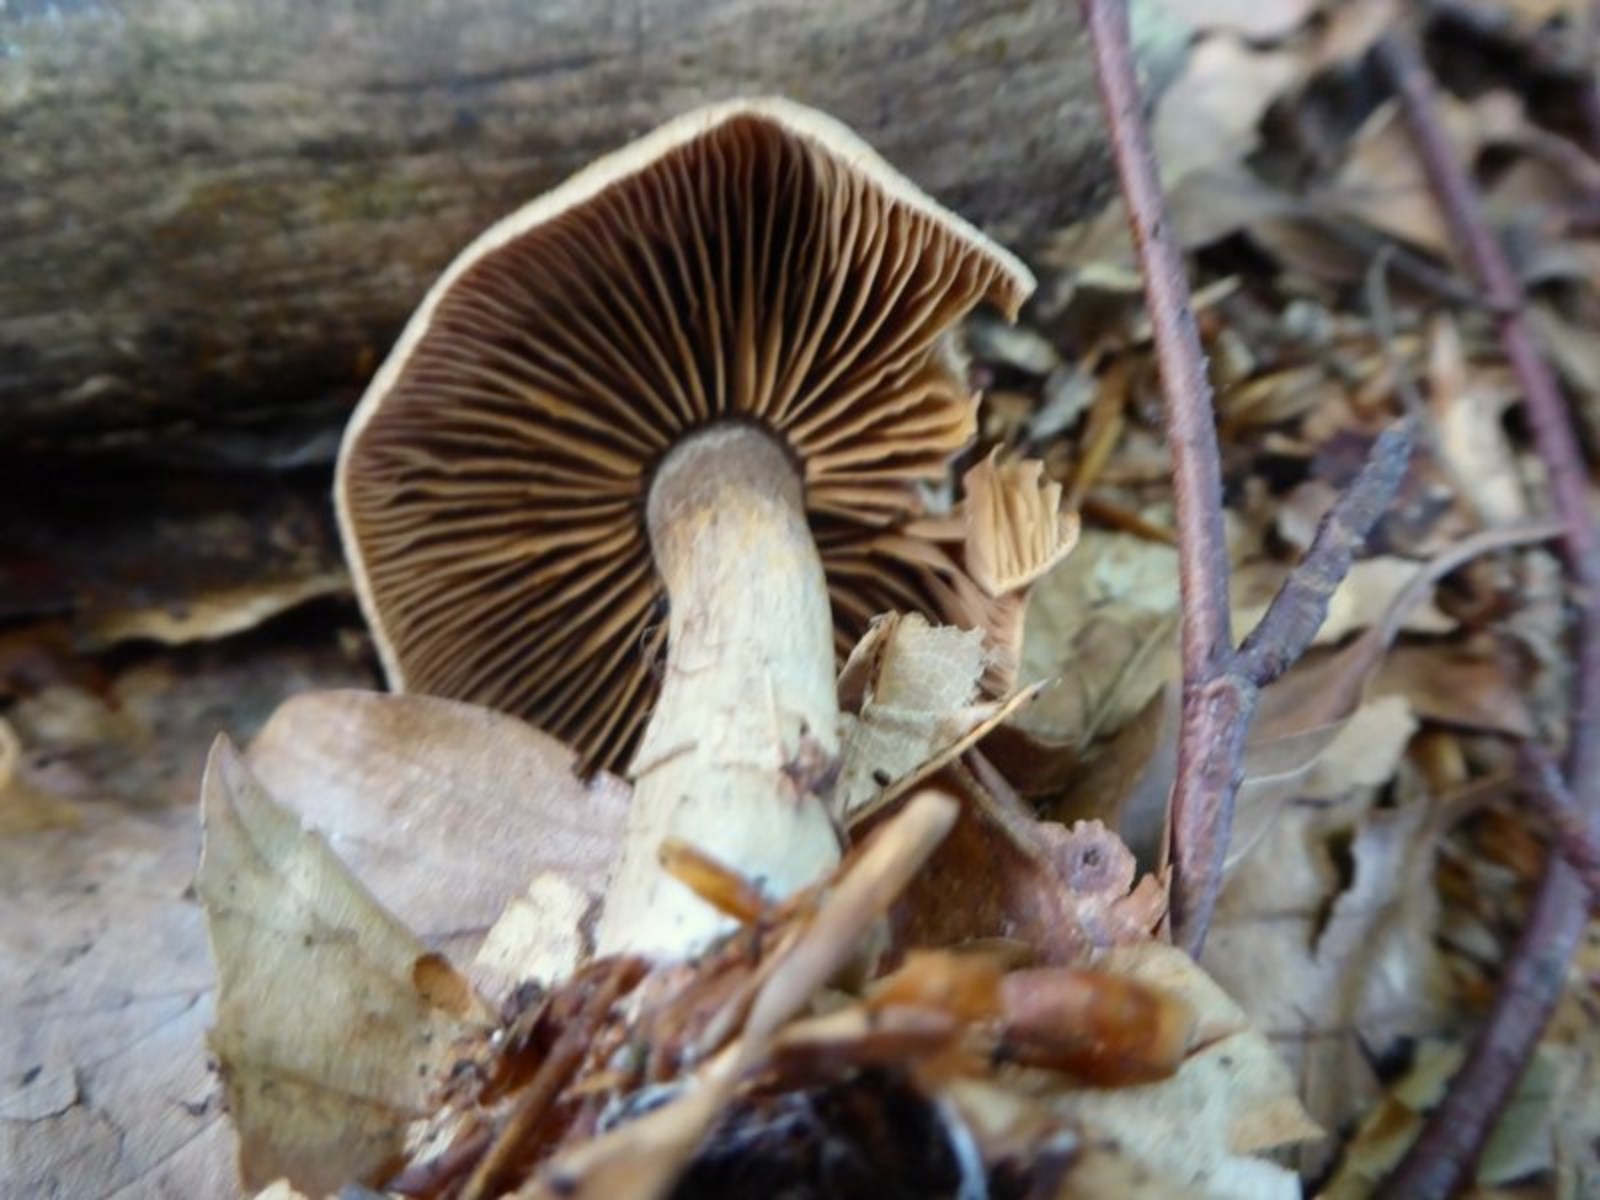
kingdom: Fungi
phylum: Basidiomycota
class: Agaricomycetes
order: Agaricales
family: Cortinariaceae
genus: Cortinarius
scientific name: Cortinarius
